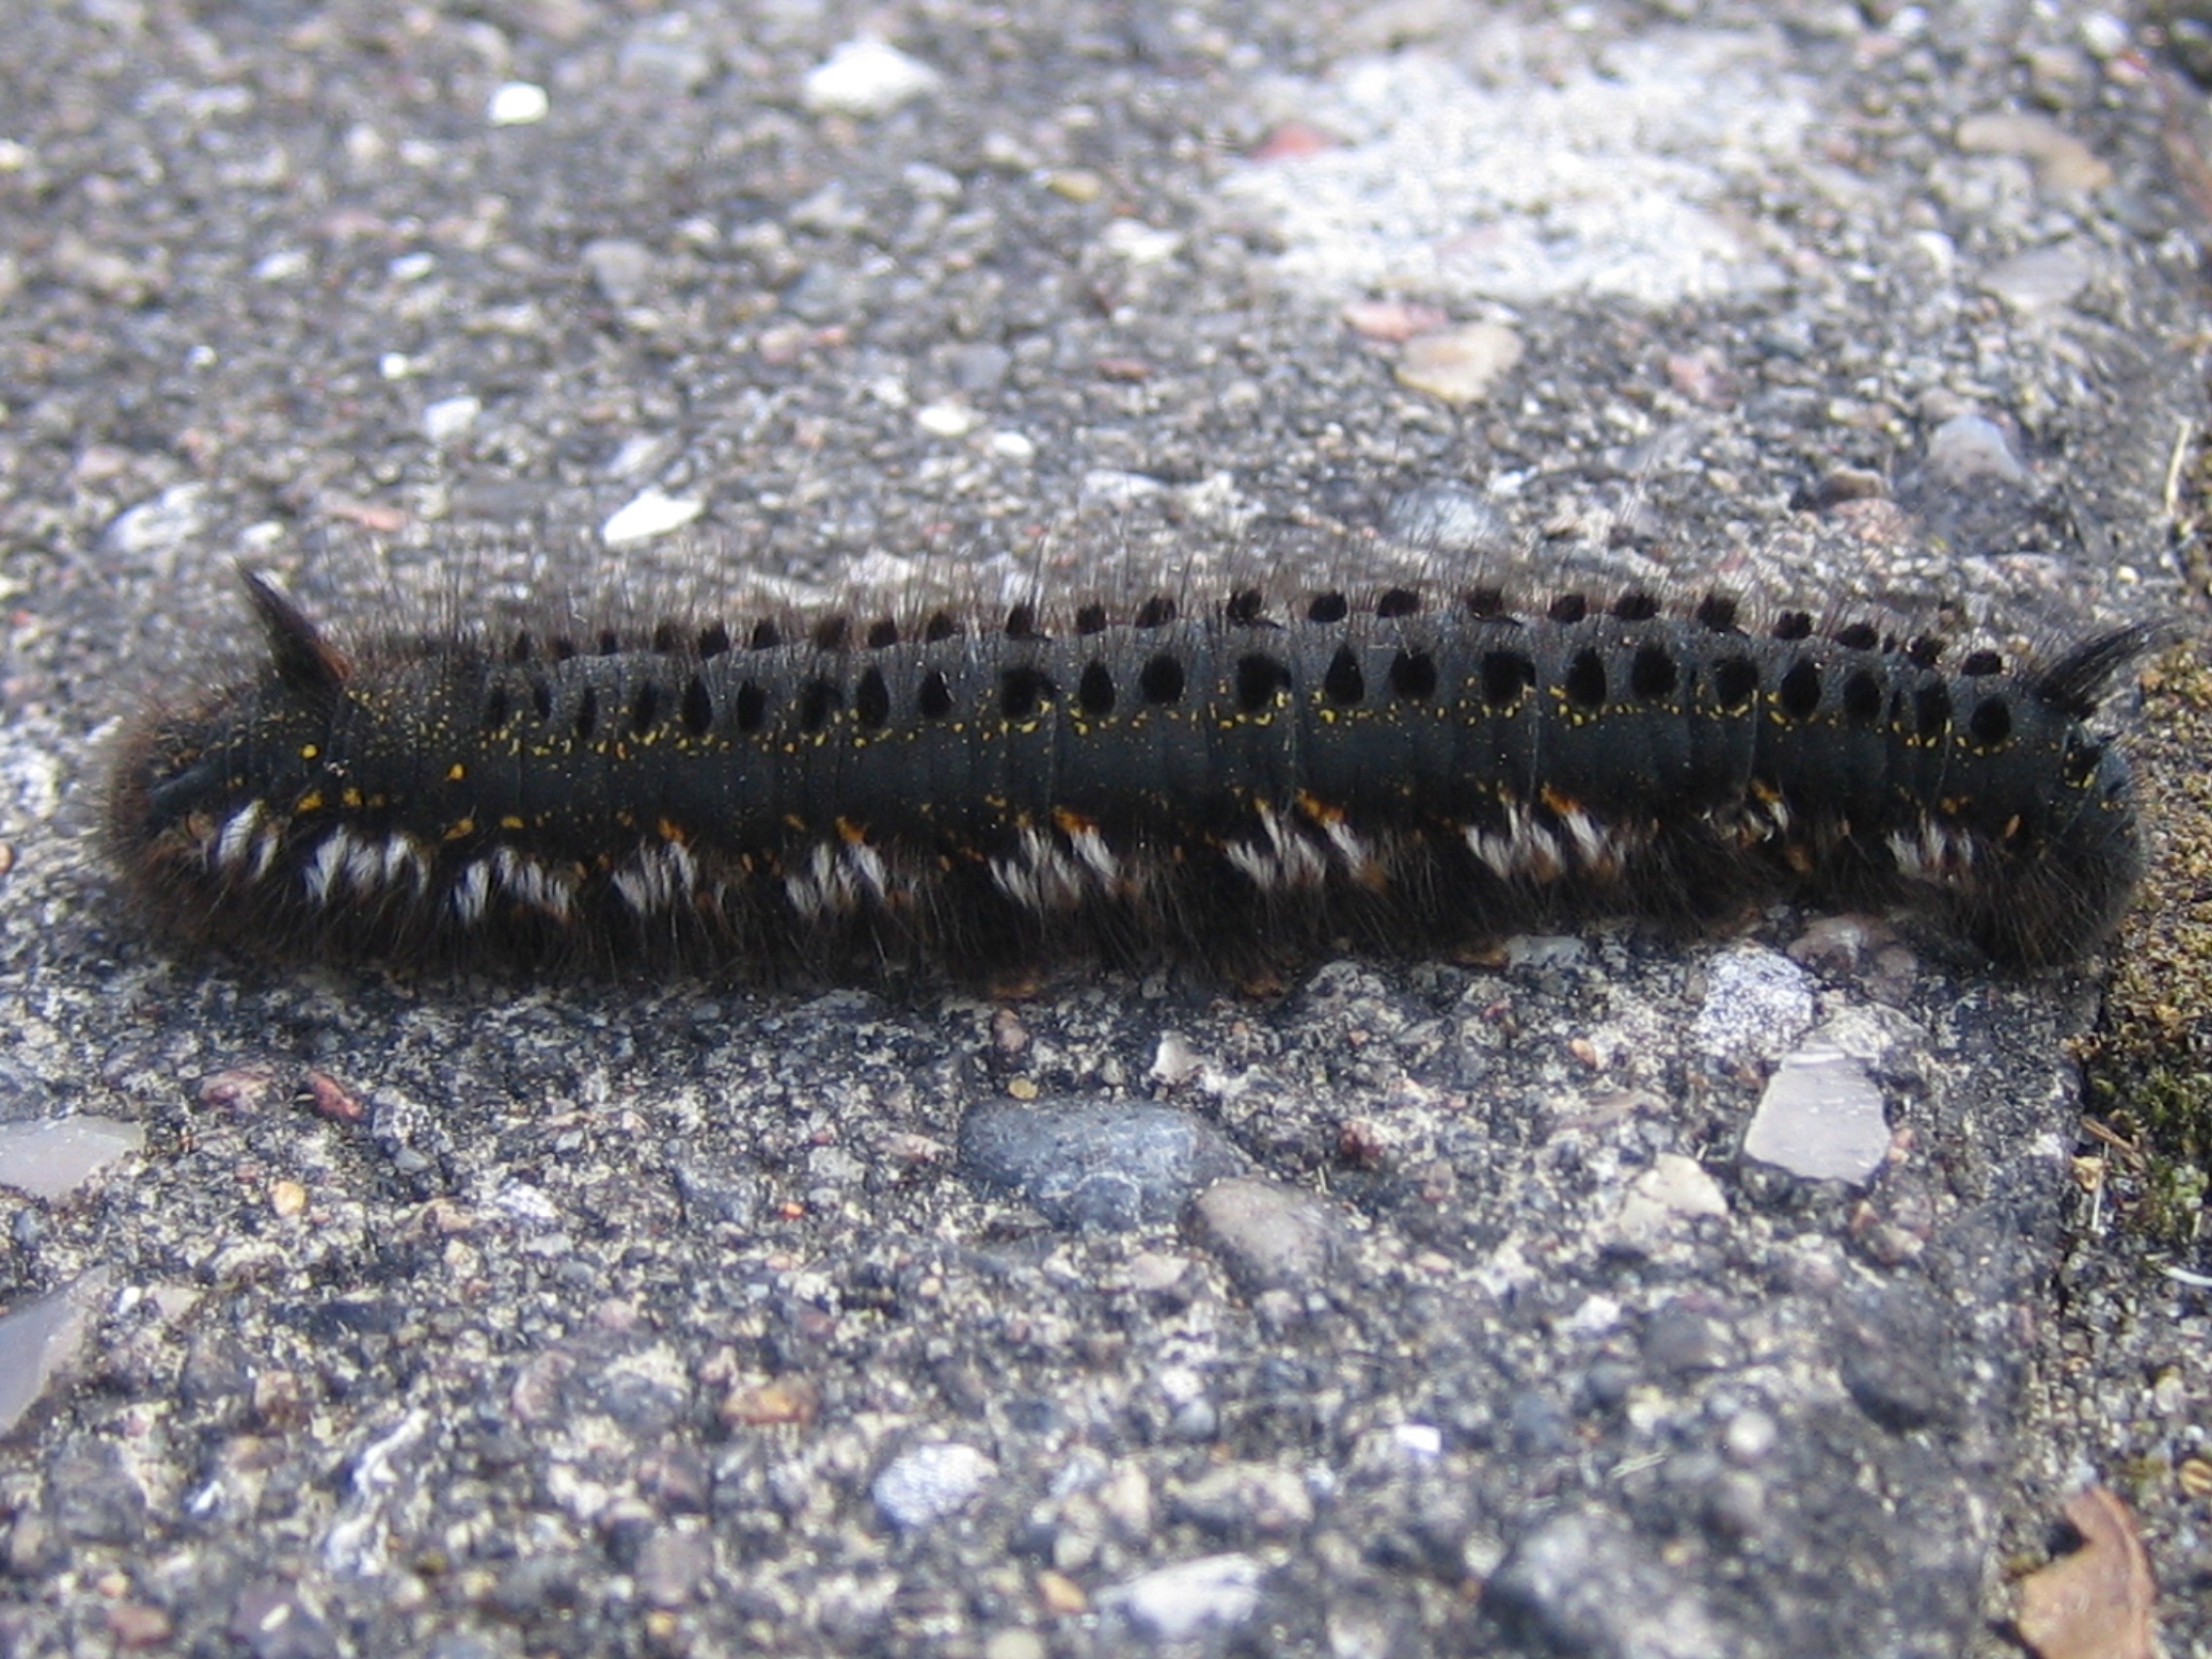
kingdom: Animalia
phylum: Arthropoda
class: Insecta
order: Lepidoptera
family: Lasiocampidae
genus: Euthrix
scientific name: Euthrix potatoria
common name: Græsspinder
